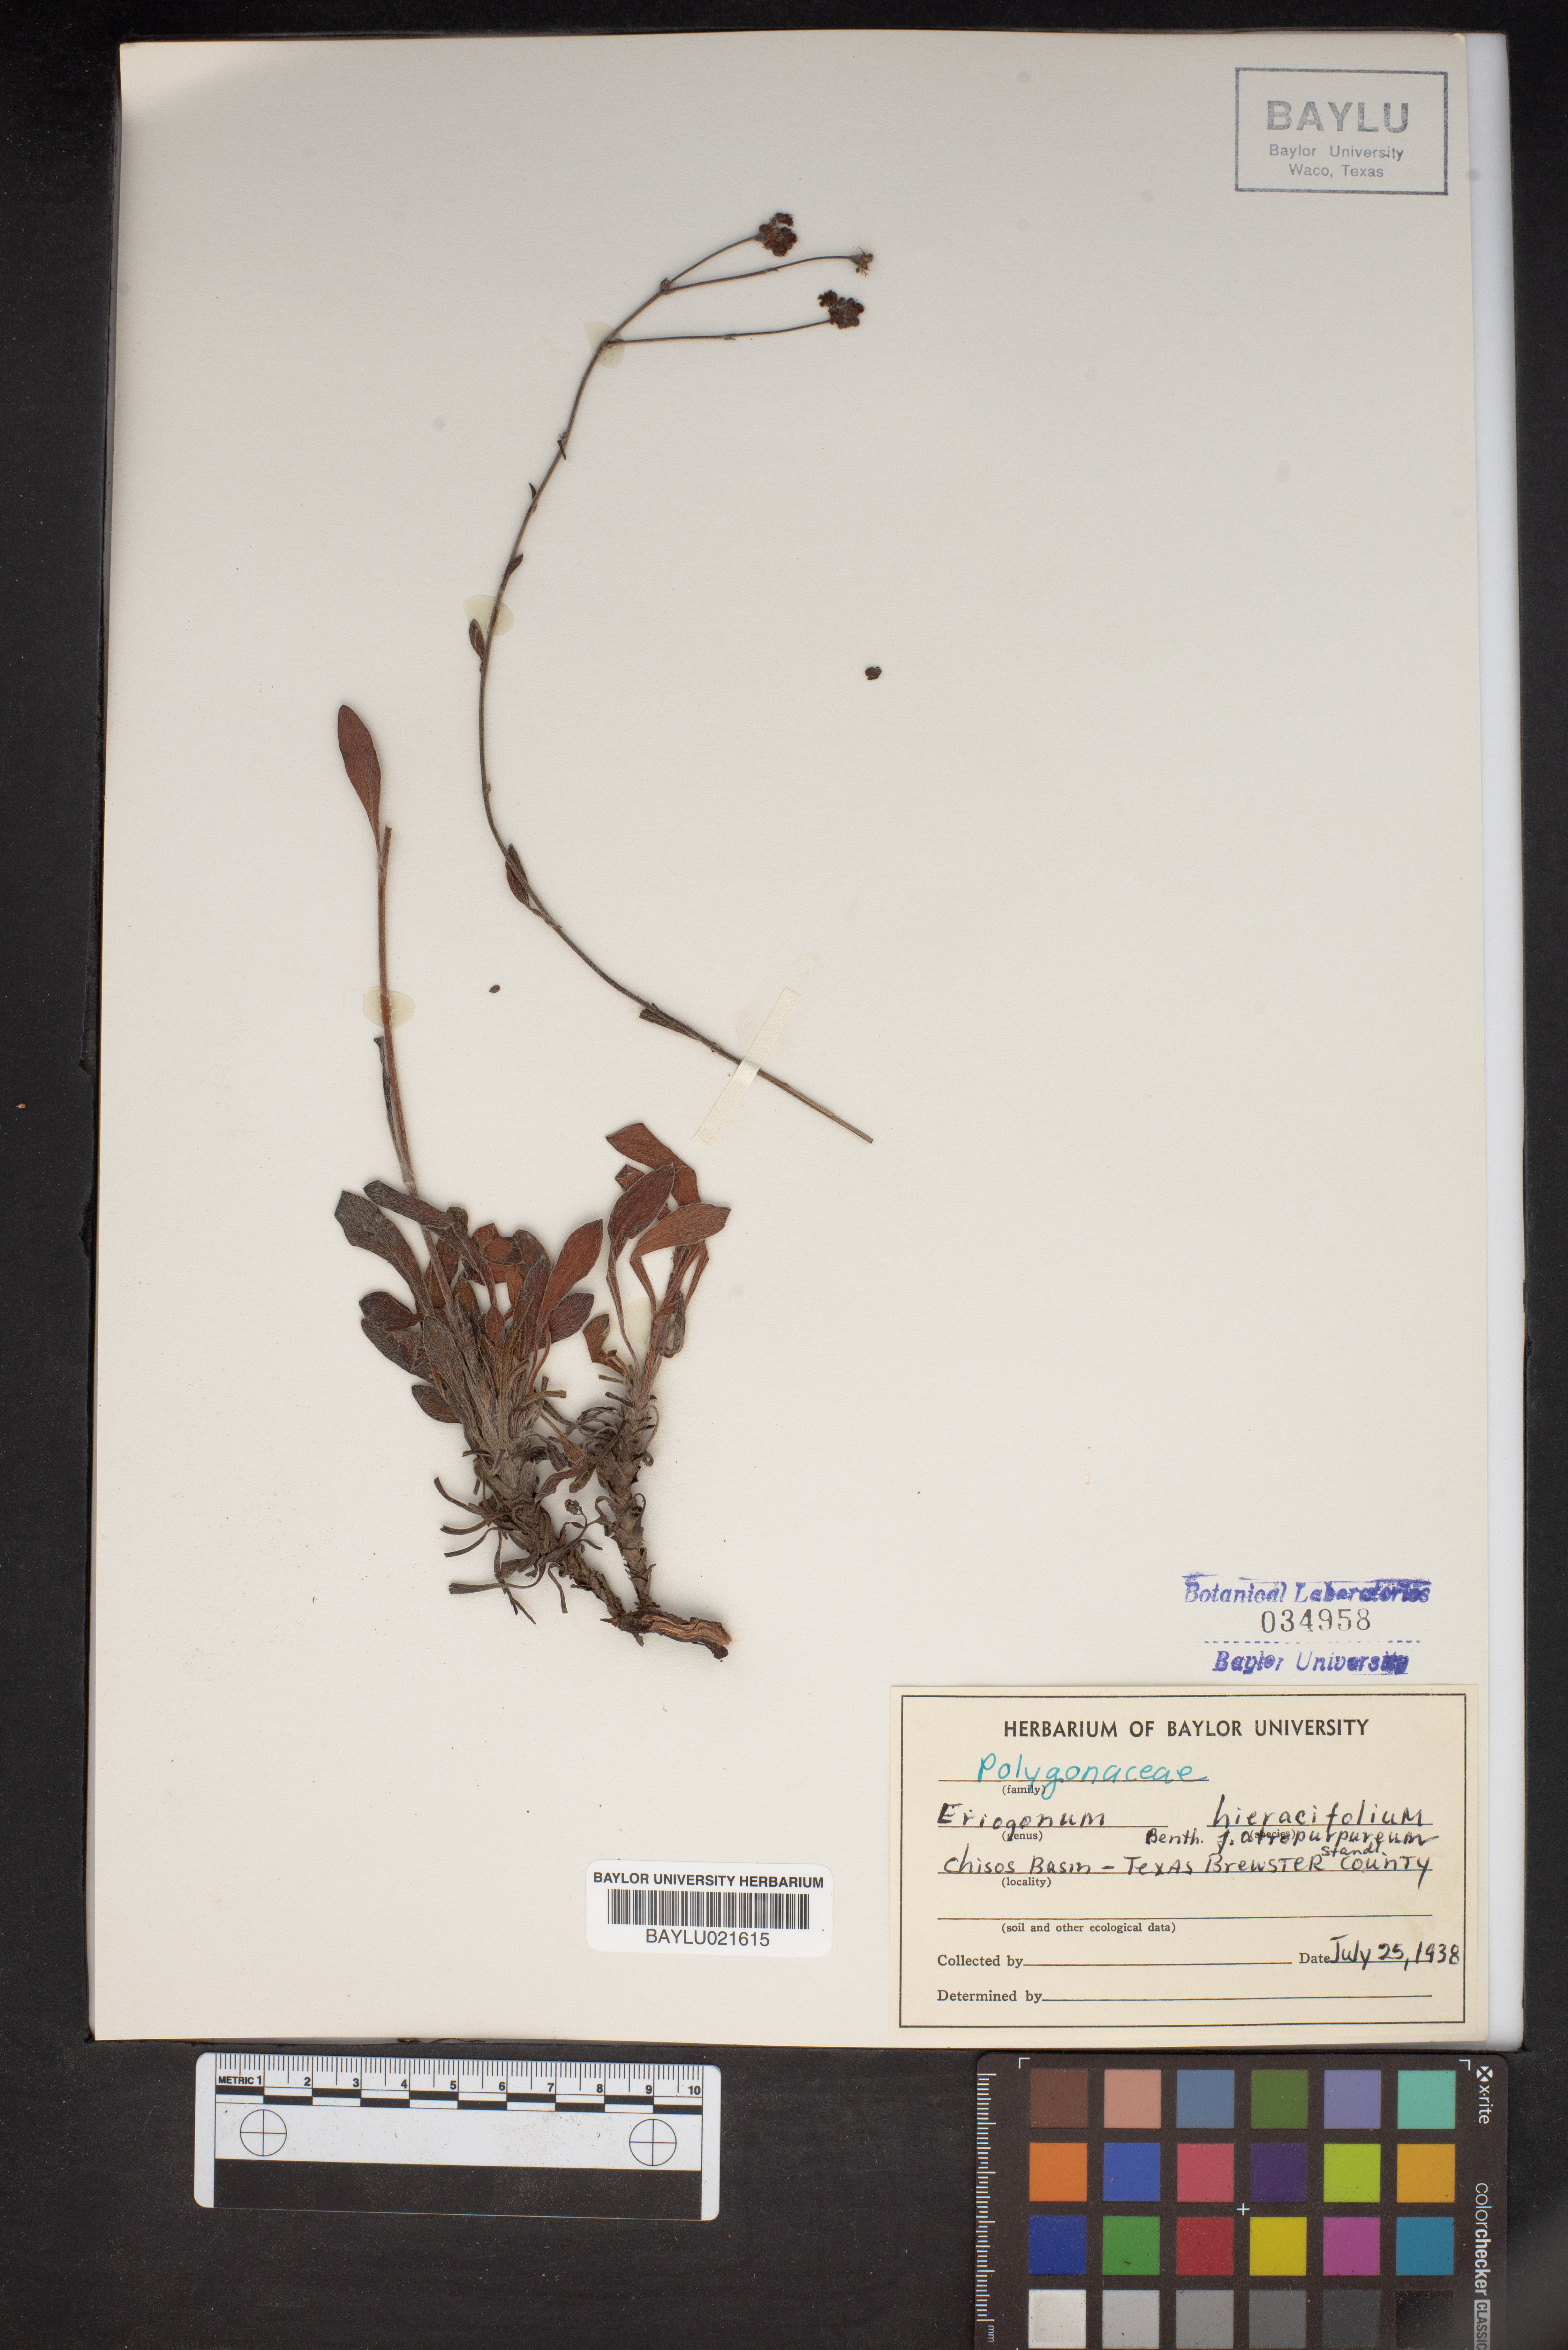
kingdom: Plantae
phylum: Tracheophyta
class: Magnoliopsida
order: Caryophyllales
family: Polygonaceae
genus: Eriogonum
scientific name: Eriogonum hieraciifolium
